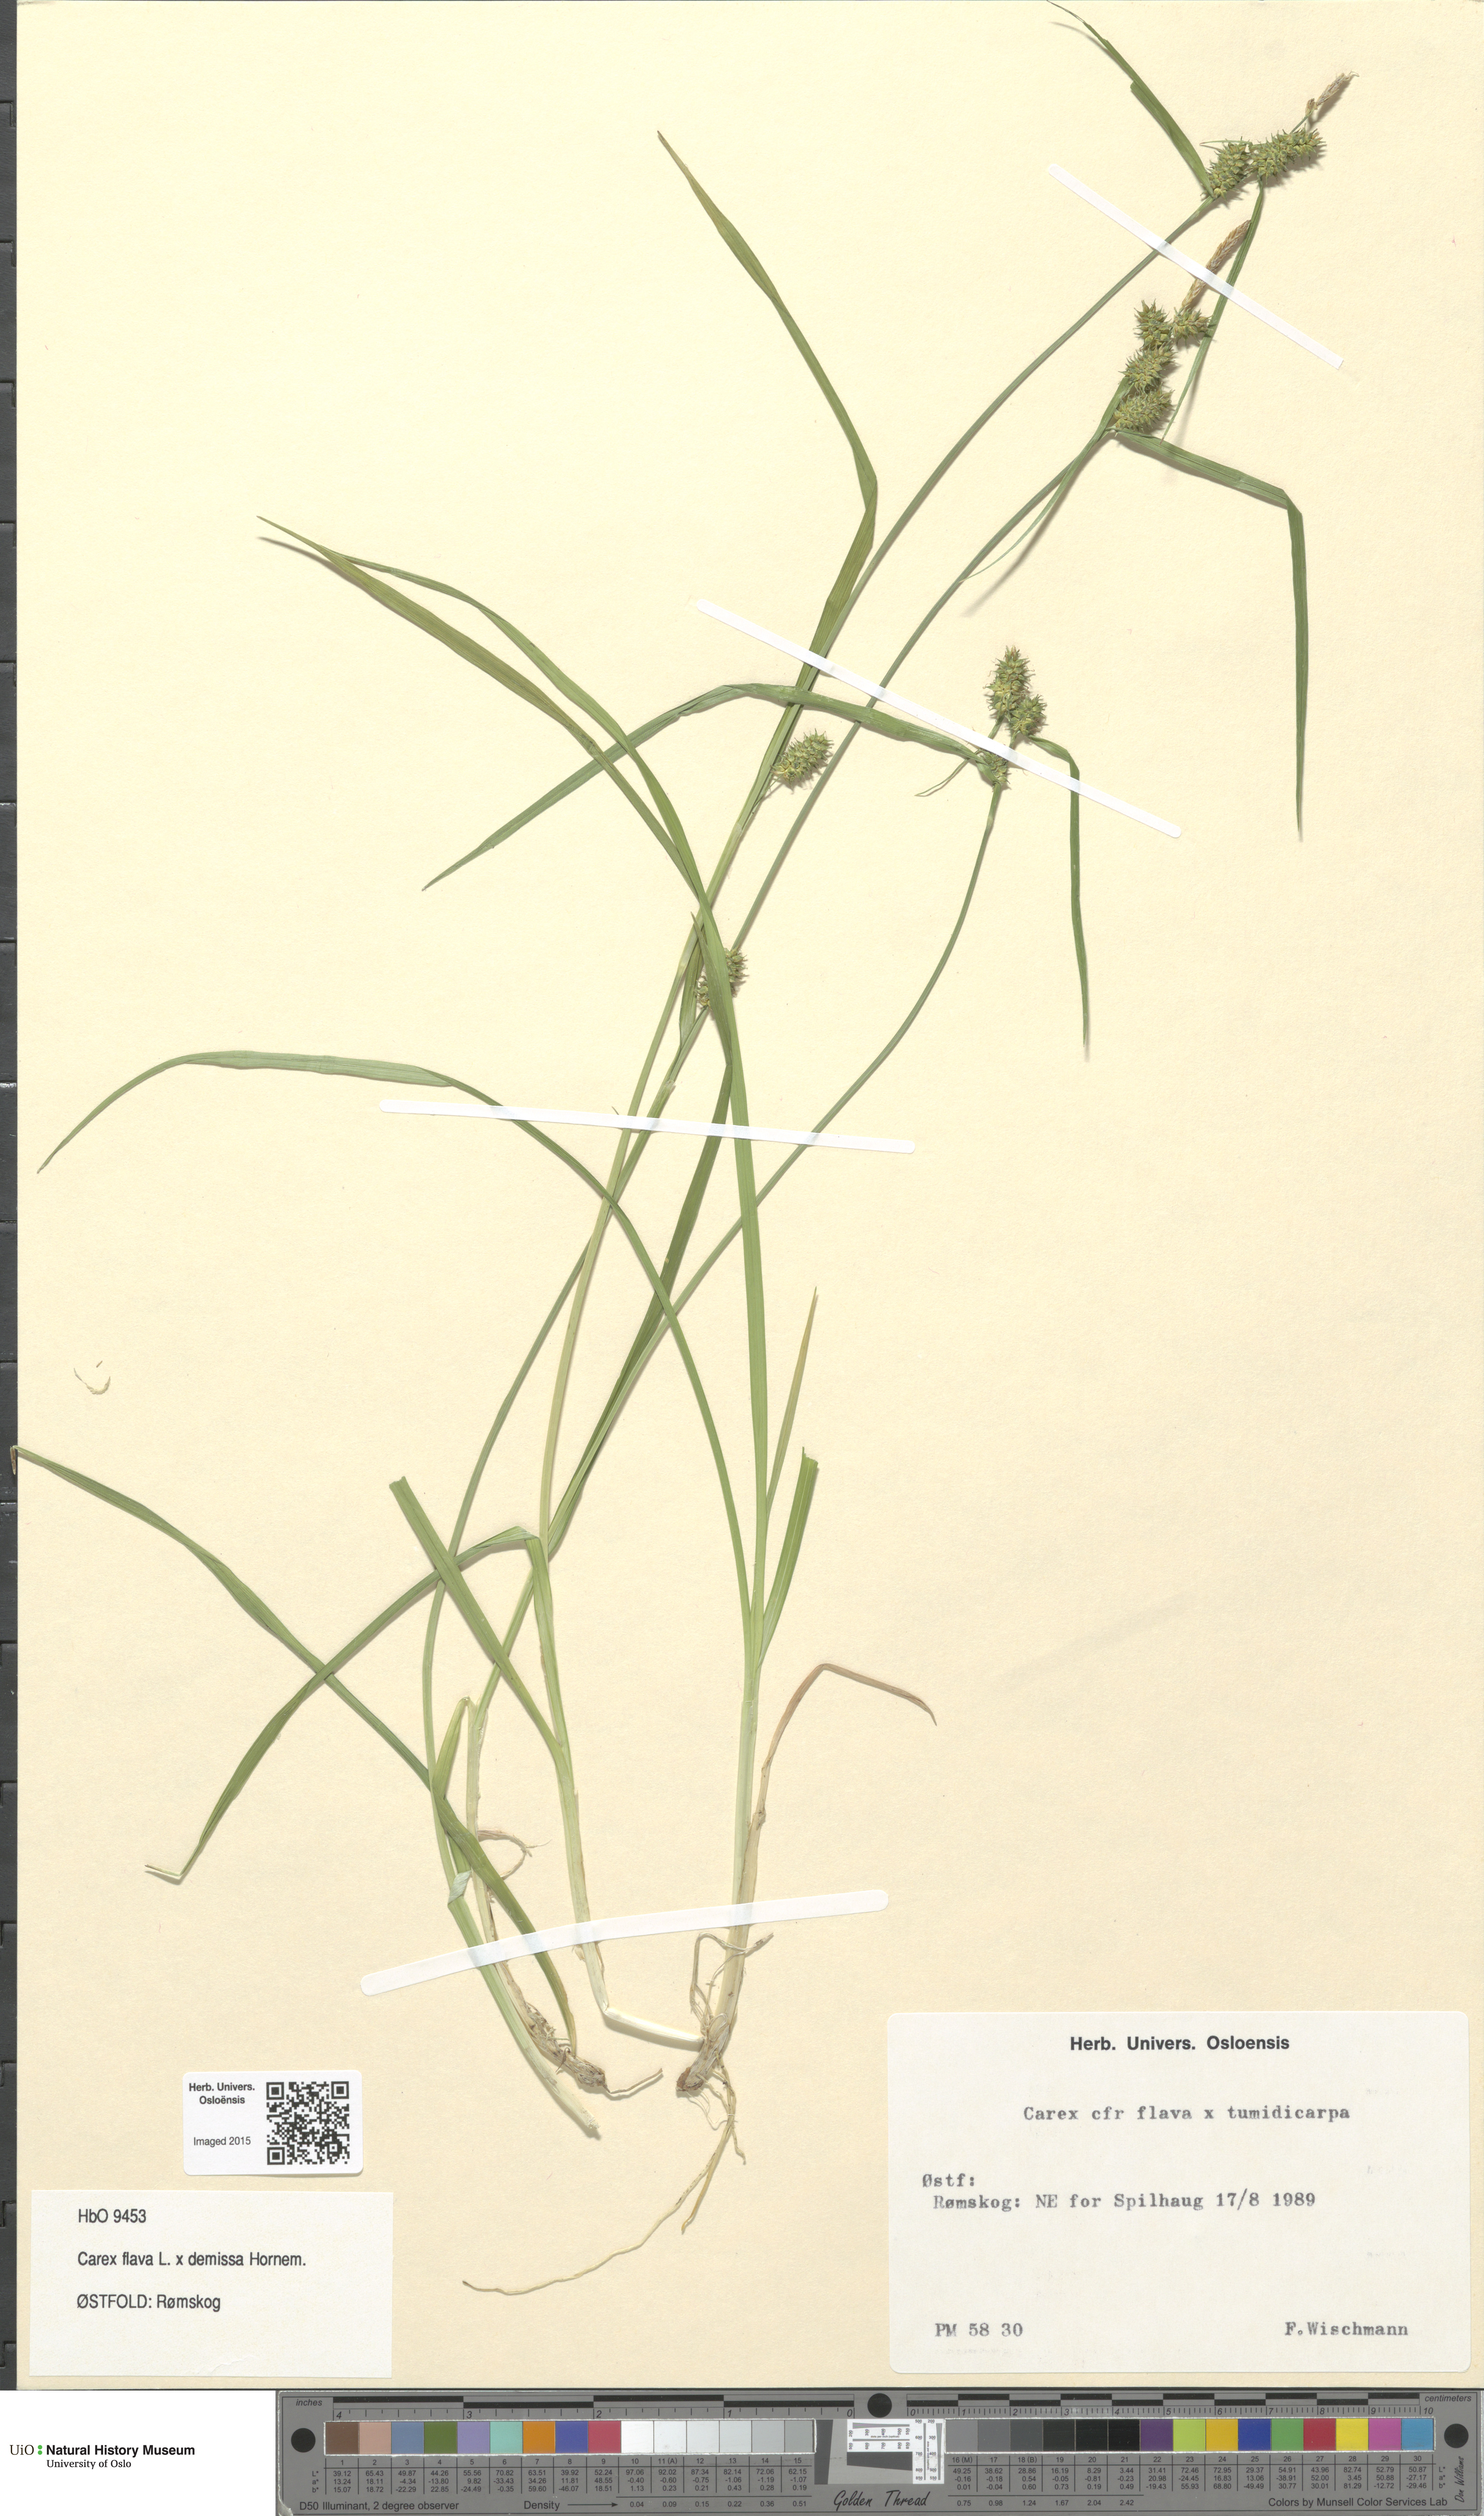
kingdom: Plantae
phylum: Tracheophyta
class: Liliopsida
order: Poales
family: Cyperaceae
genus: Carex
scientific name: Carex
